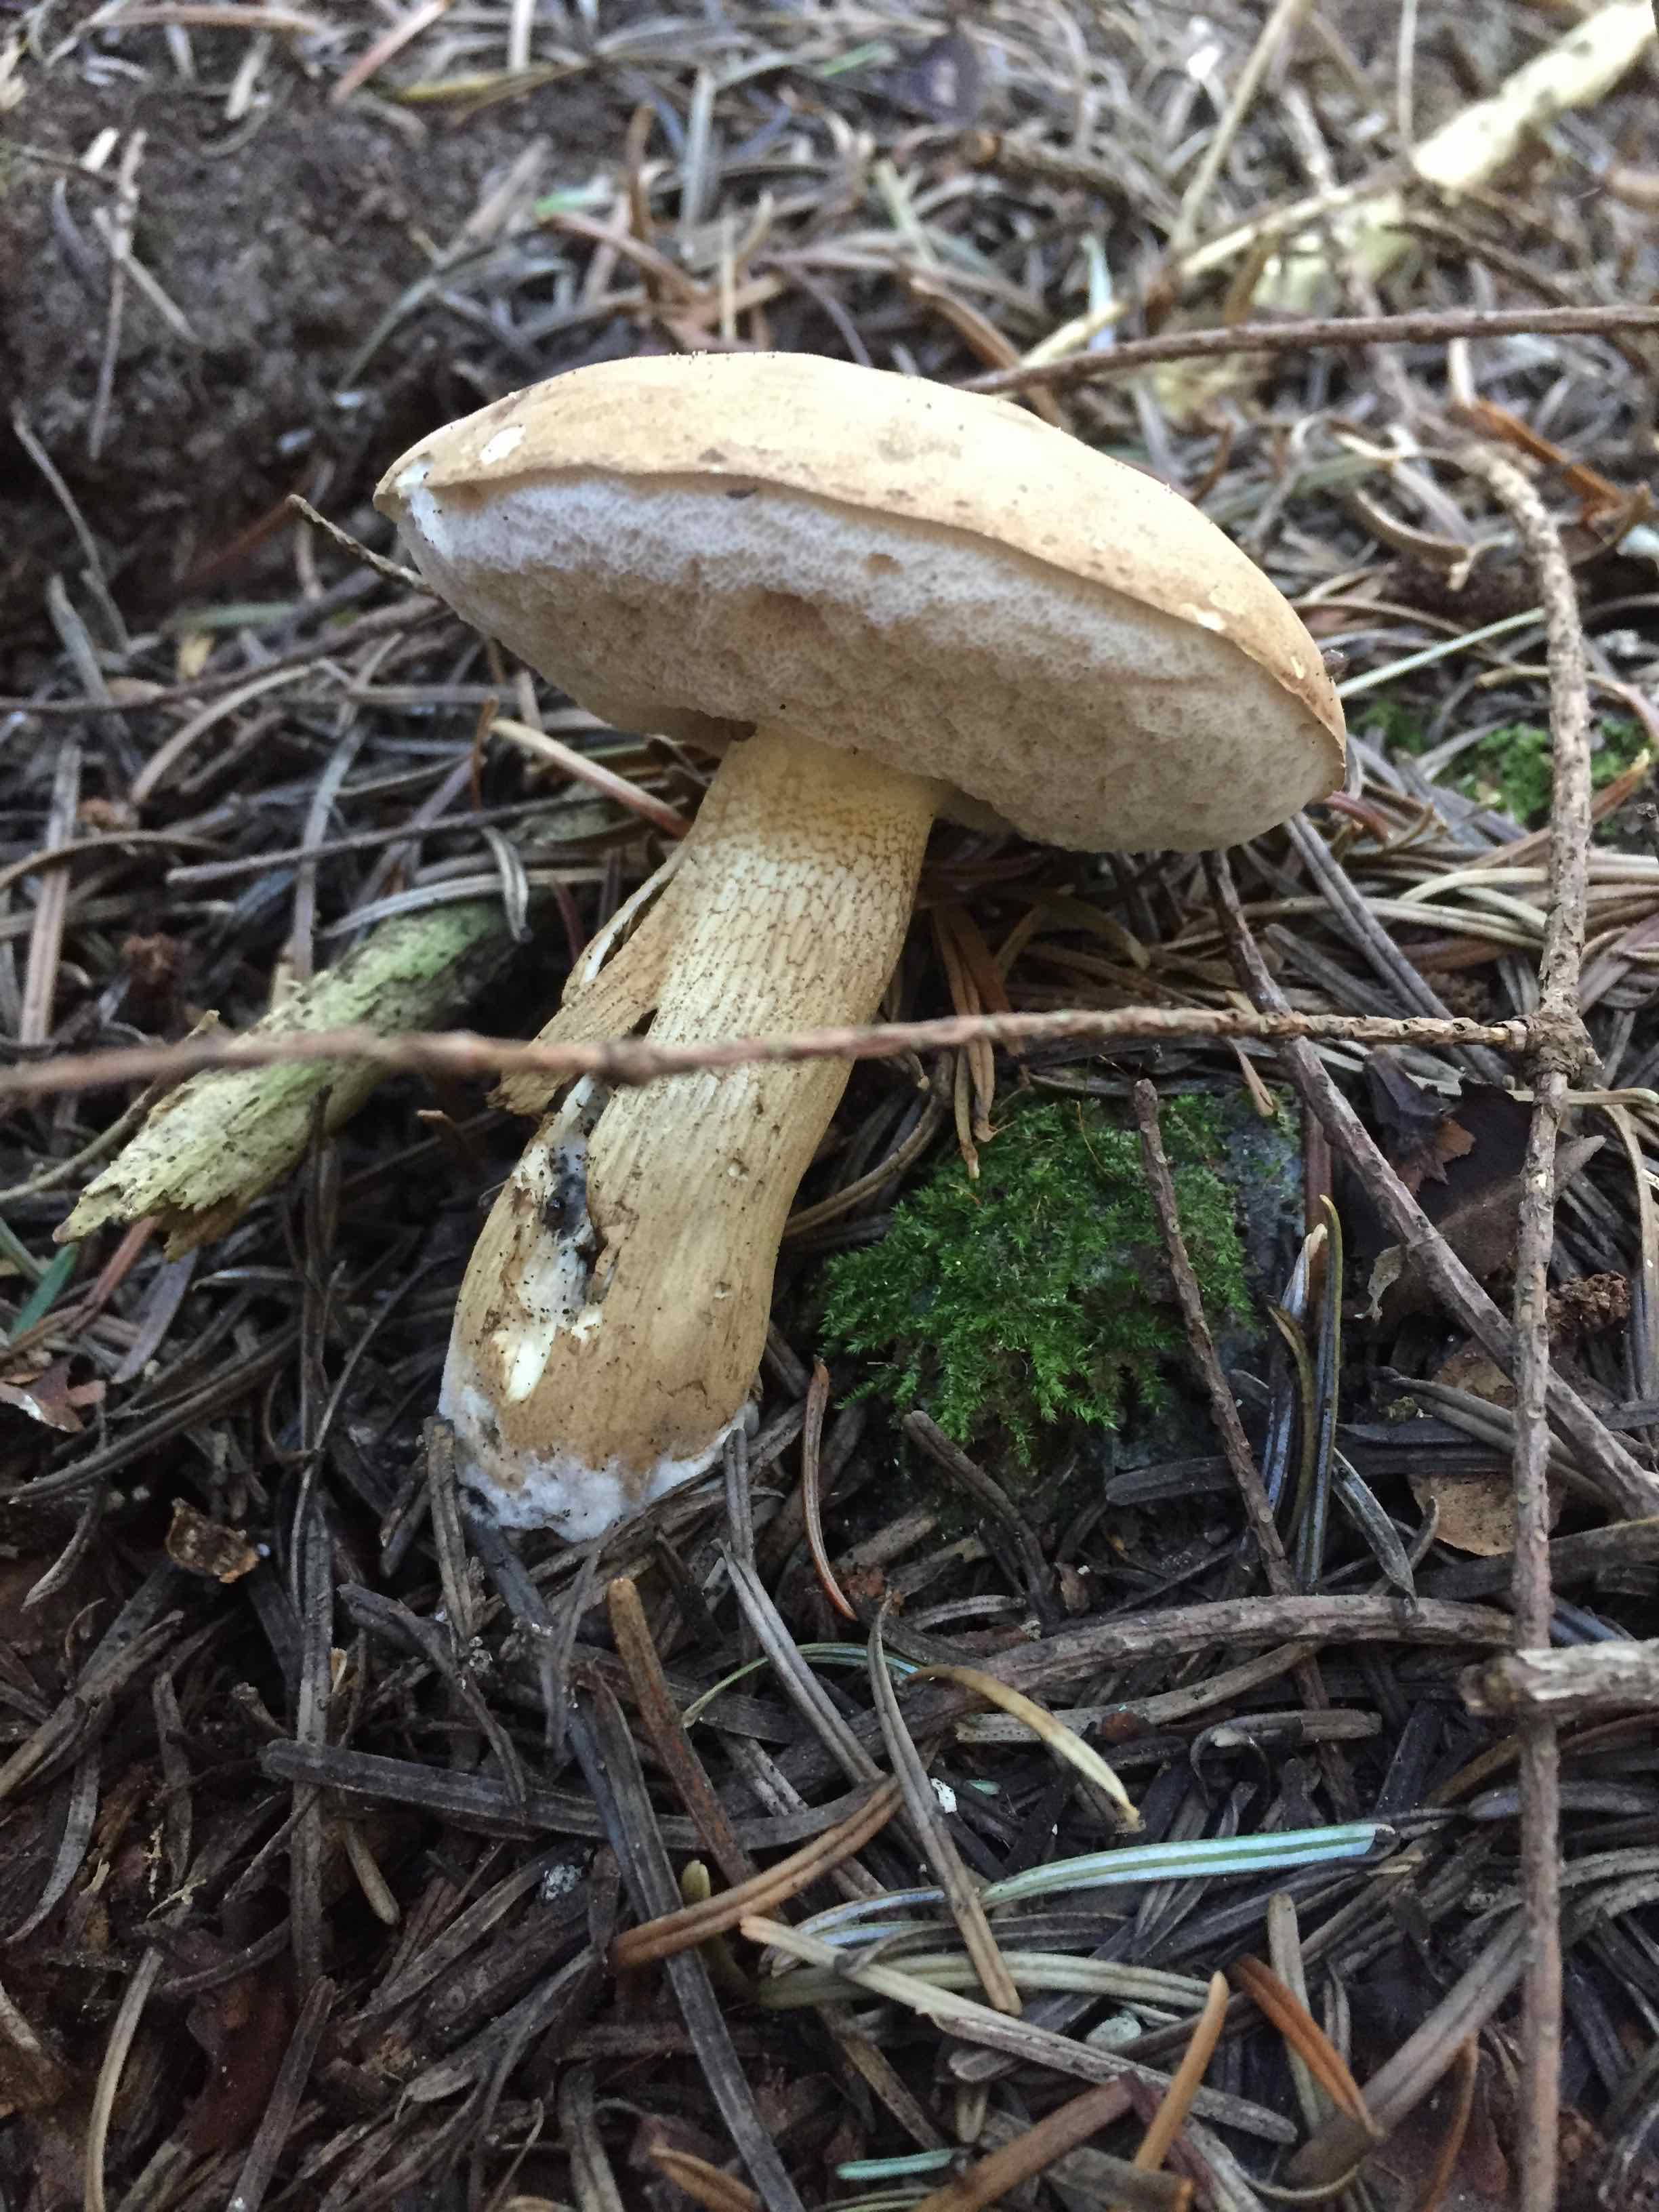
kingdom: Fungi
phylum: Basidiomycota
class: Agaricomycetes
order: Boletales
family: Boletaceae
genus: Tylopilus
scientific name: Tylopilus felleus
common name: galderørhat
